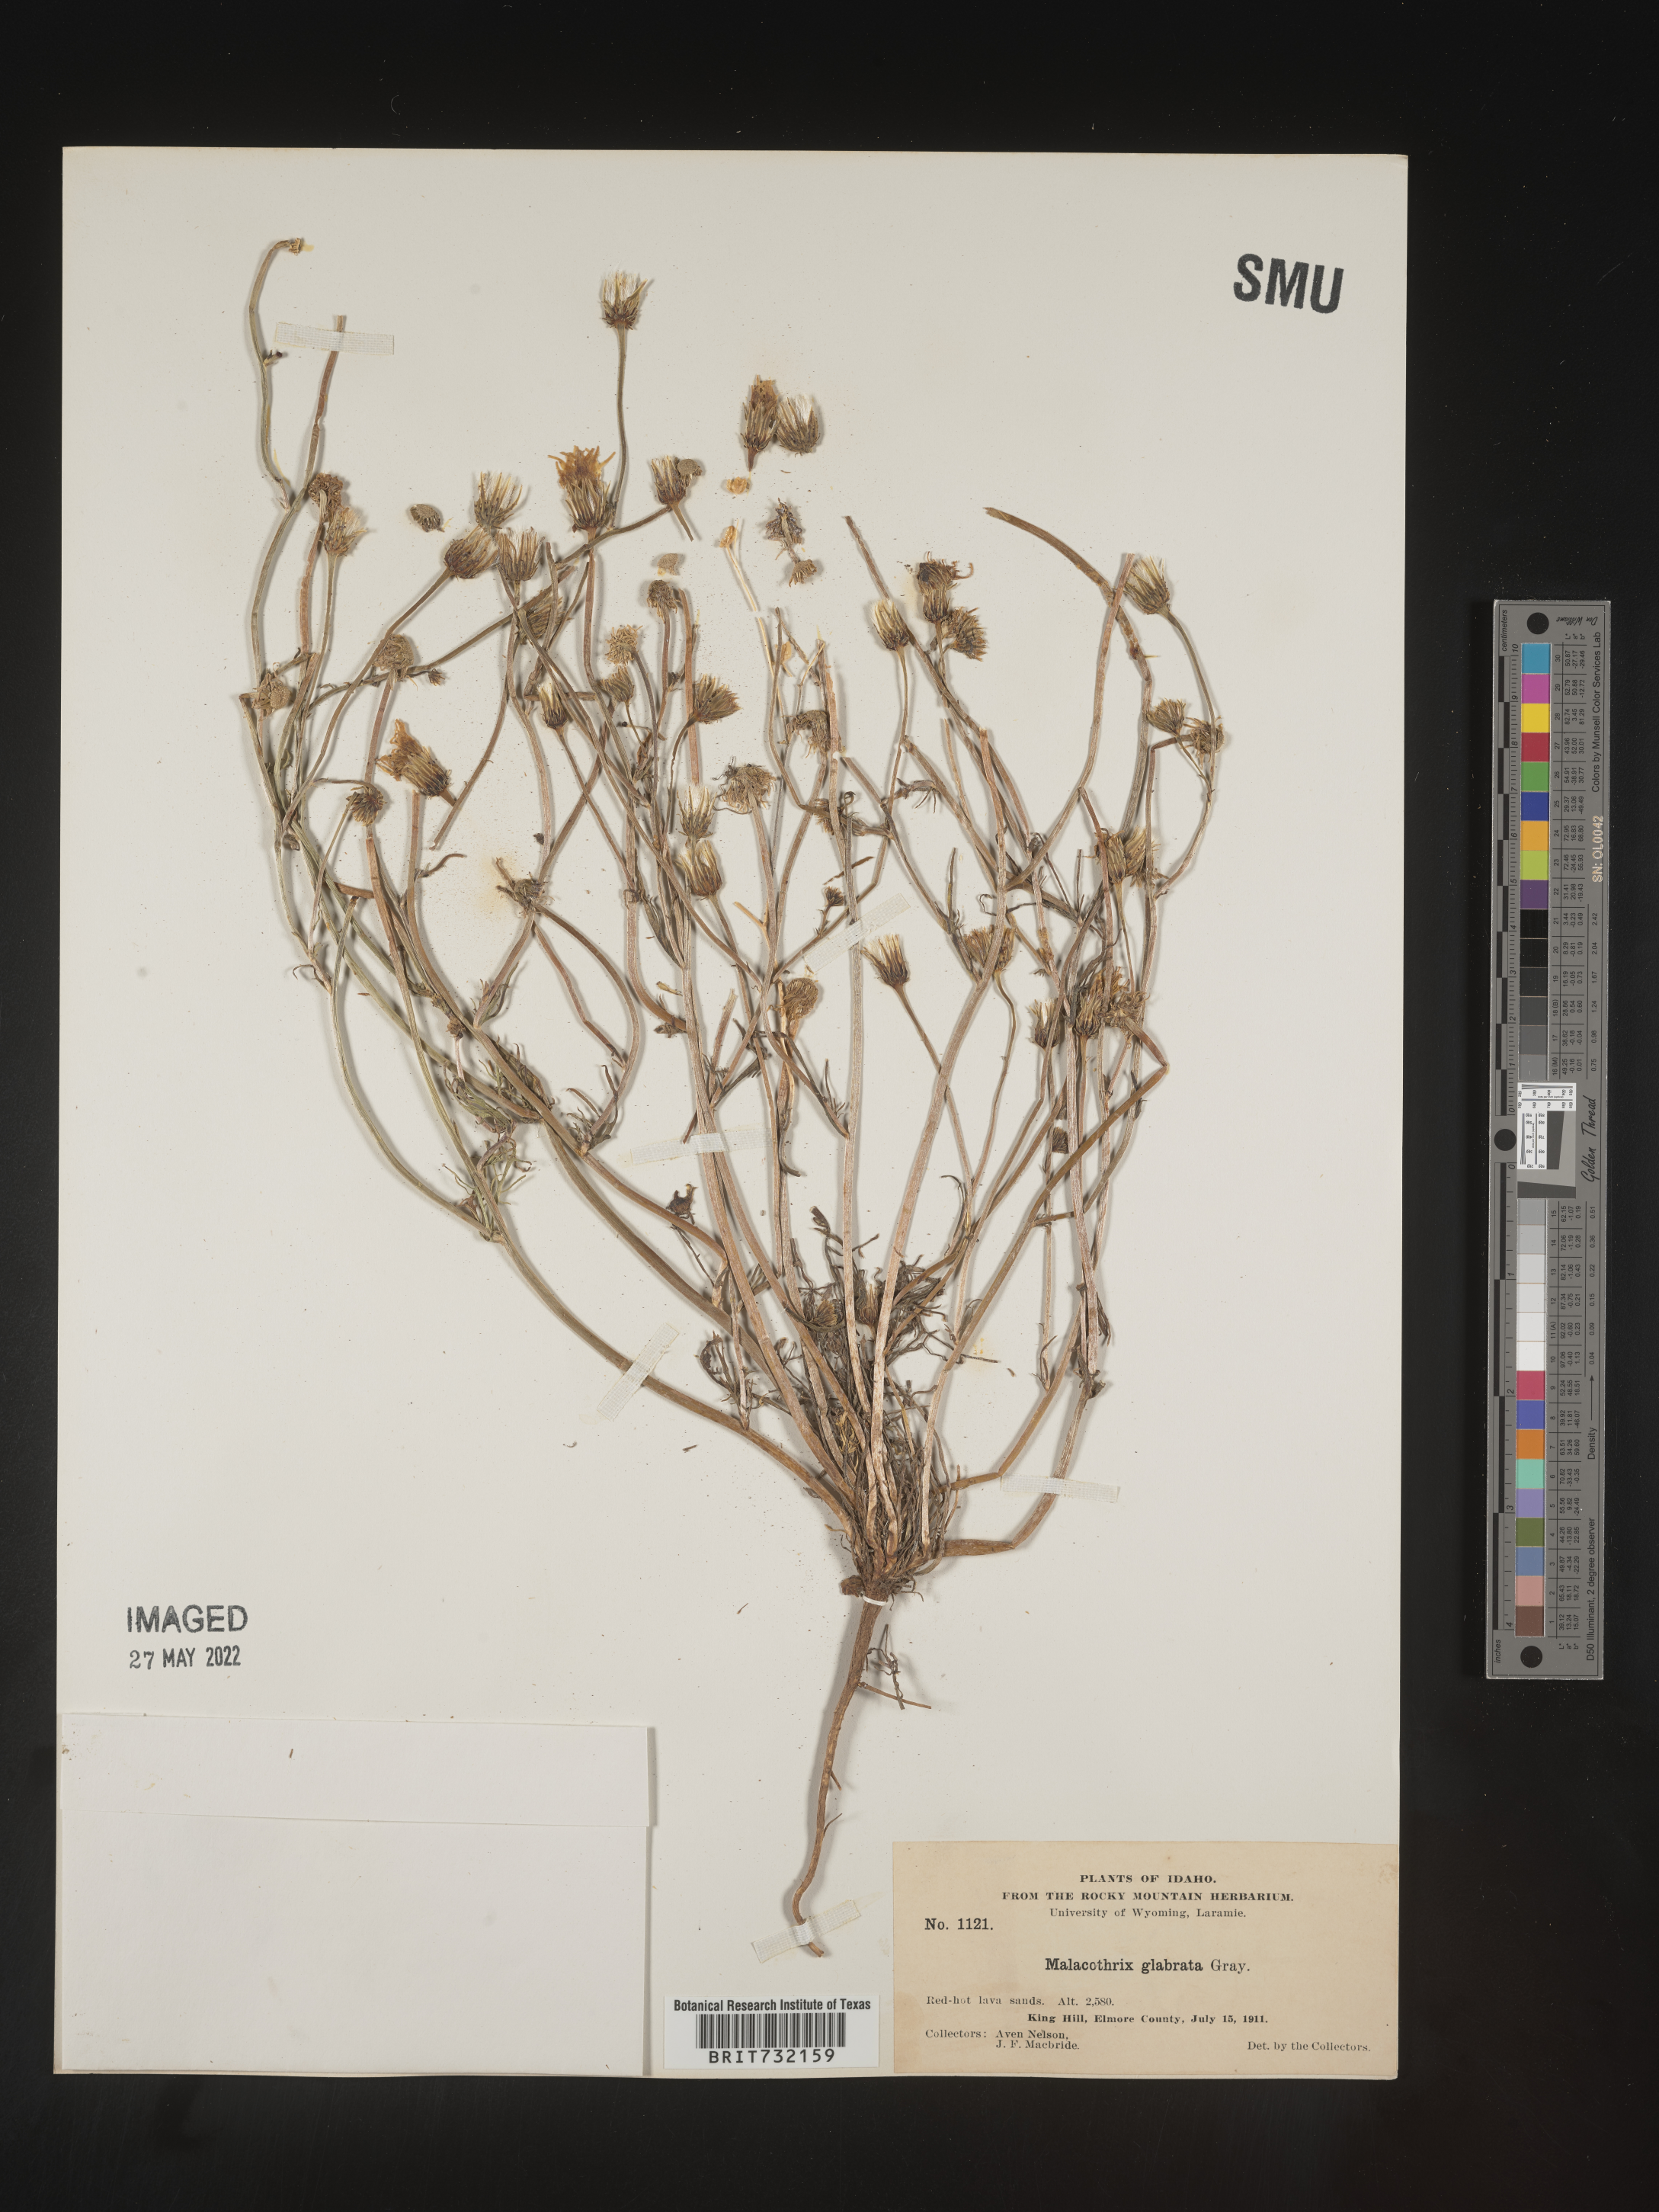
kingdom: Plantae
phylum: Tracheophyta
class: Magnoliopsida
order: Asterales
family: Asteraceae
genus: Malacothrix
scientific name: Malacothrix glabrata
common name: Smooth desert-dandelion
